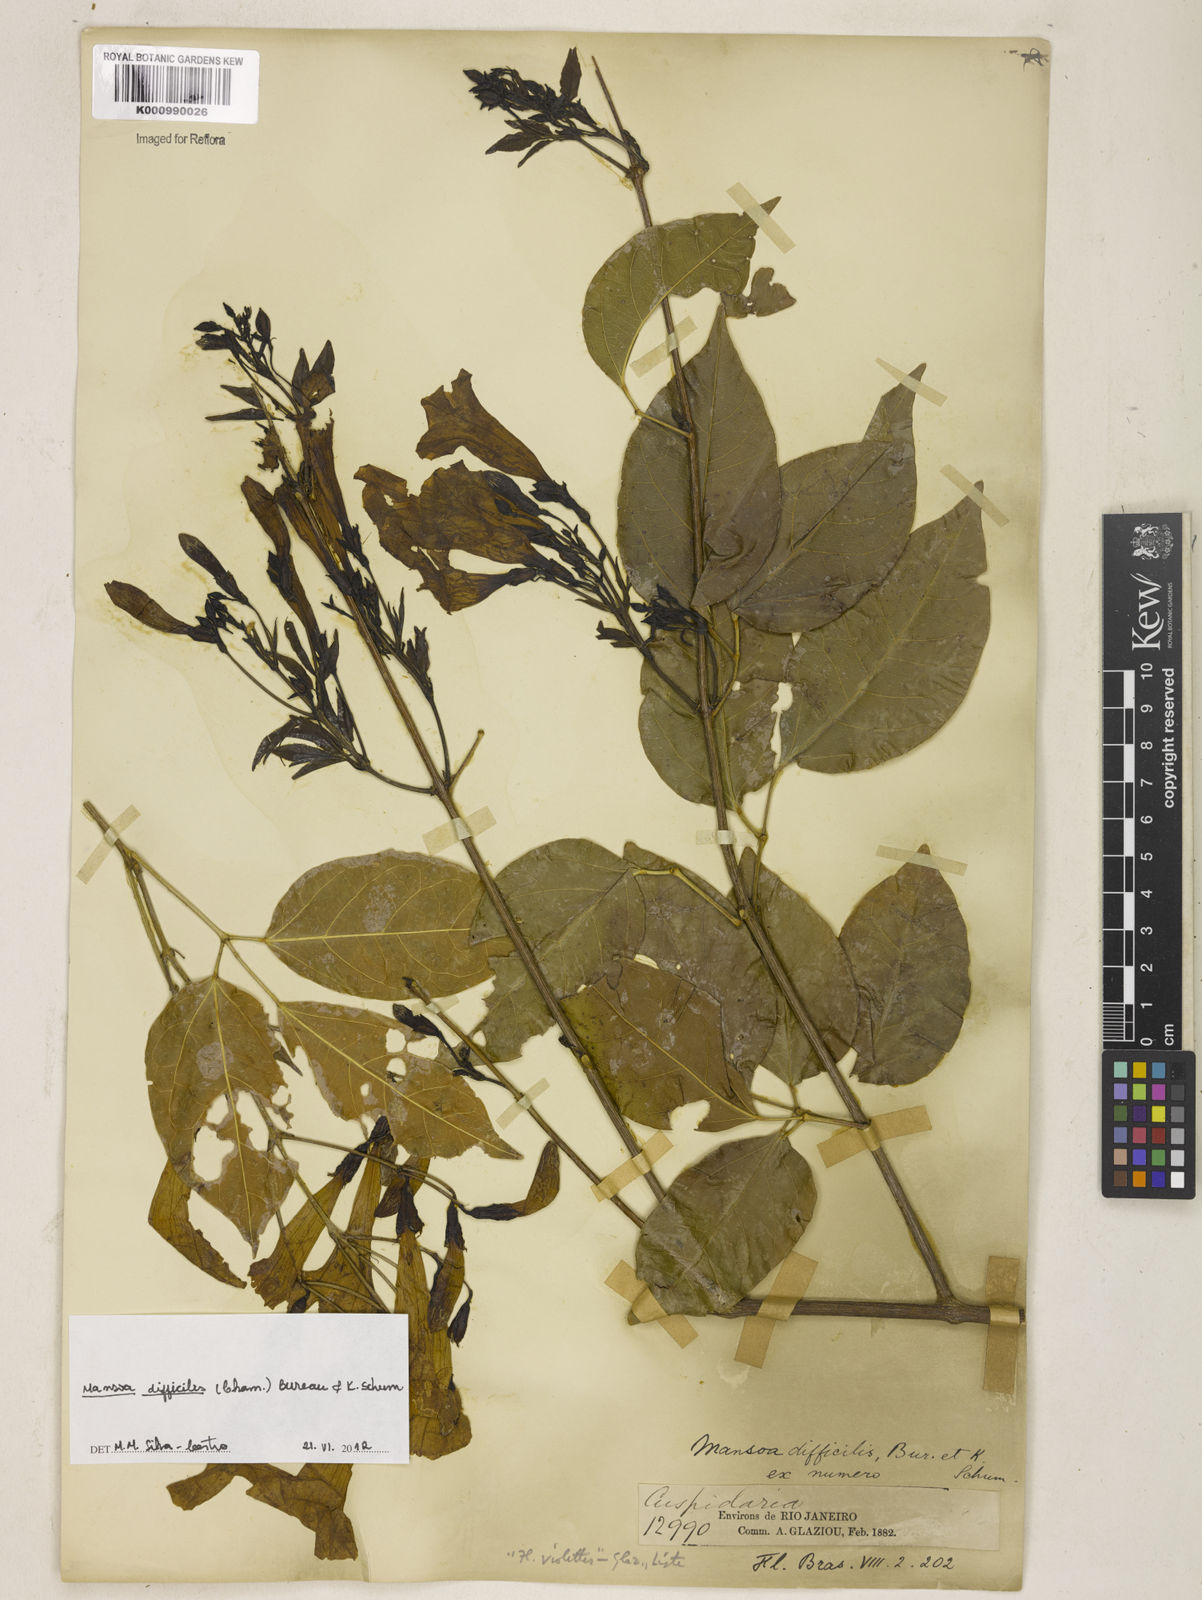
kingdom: Plantae
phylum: Tracheophyta
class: Magnoliopsida
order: Lamiales
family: Bignoniaceae
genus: Mansoa
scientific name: Mansoa difficilis
